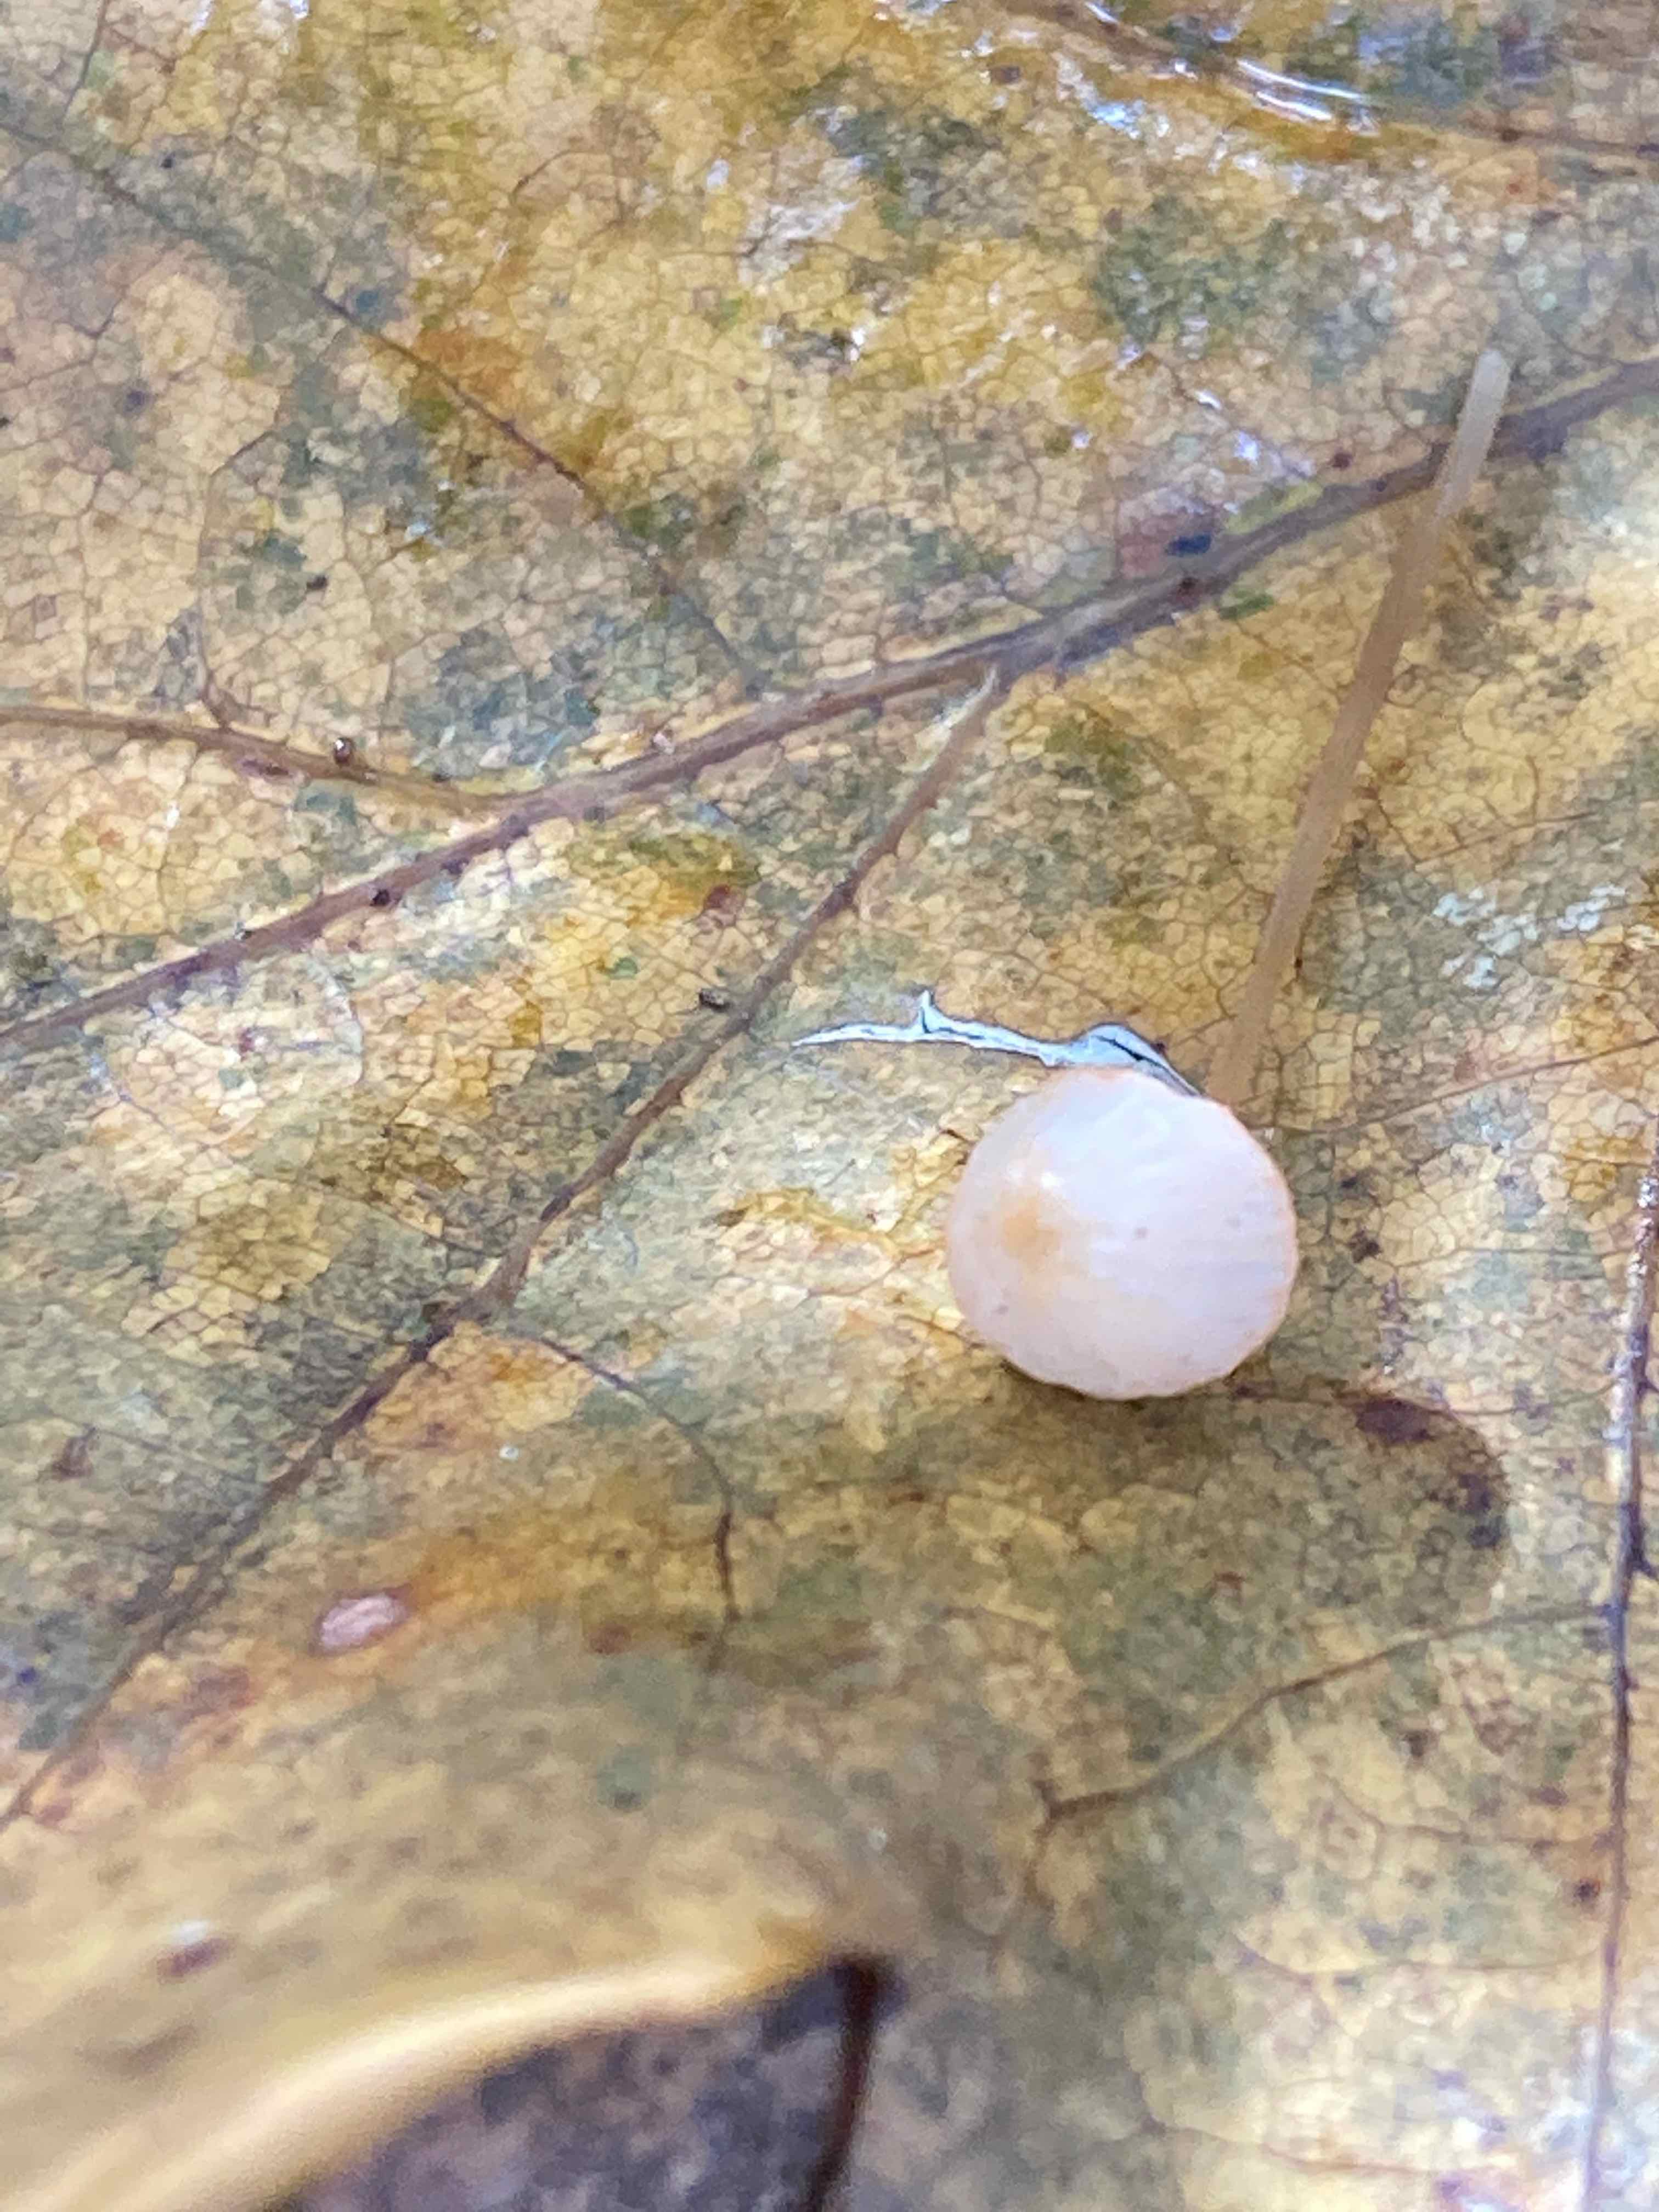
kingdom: Fungi
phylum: Basidiomycota
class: Agaricomycetes
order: Agaricales
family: Mycenaceae
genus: Mycena
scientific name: Mycena pterigena
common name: bregne-huesvamp
